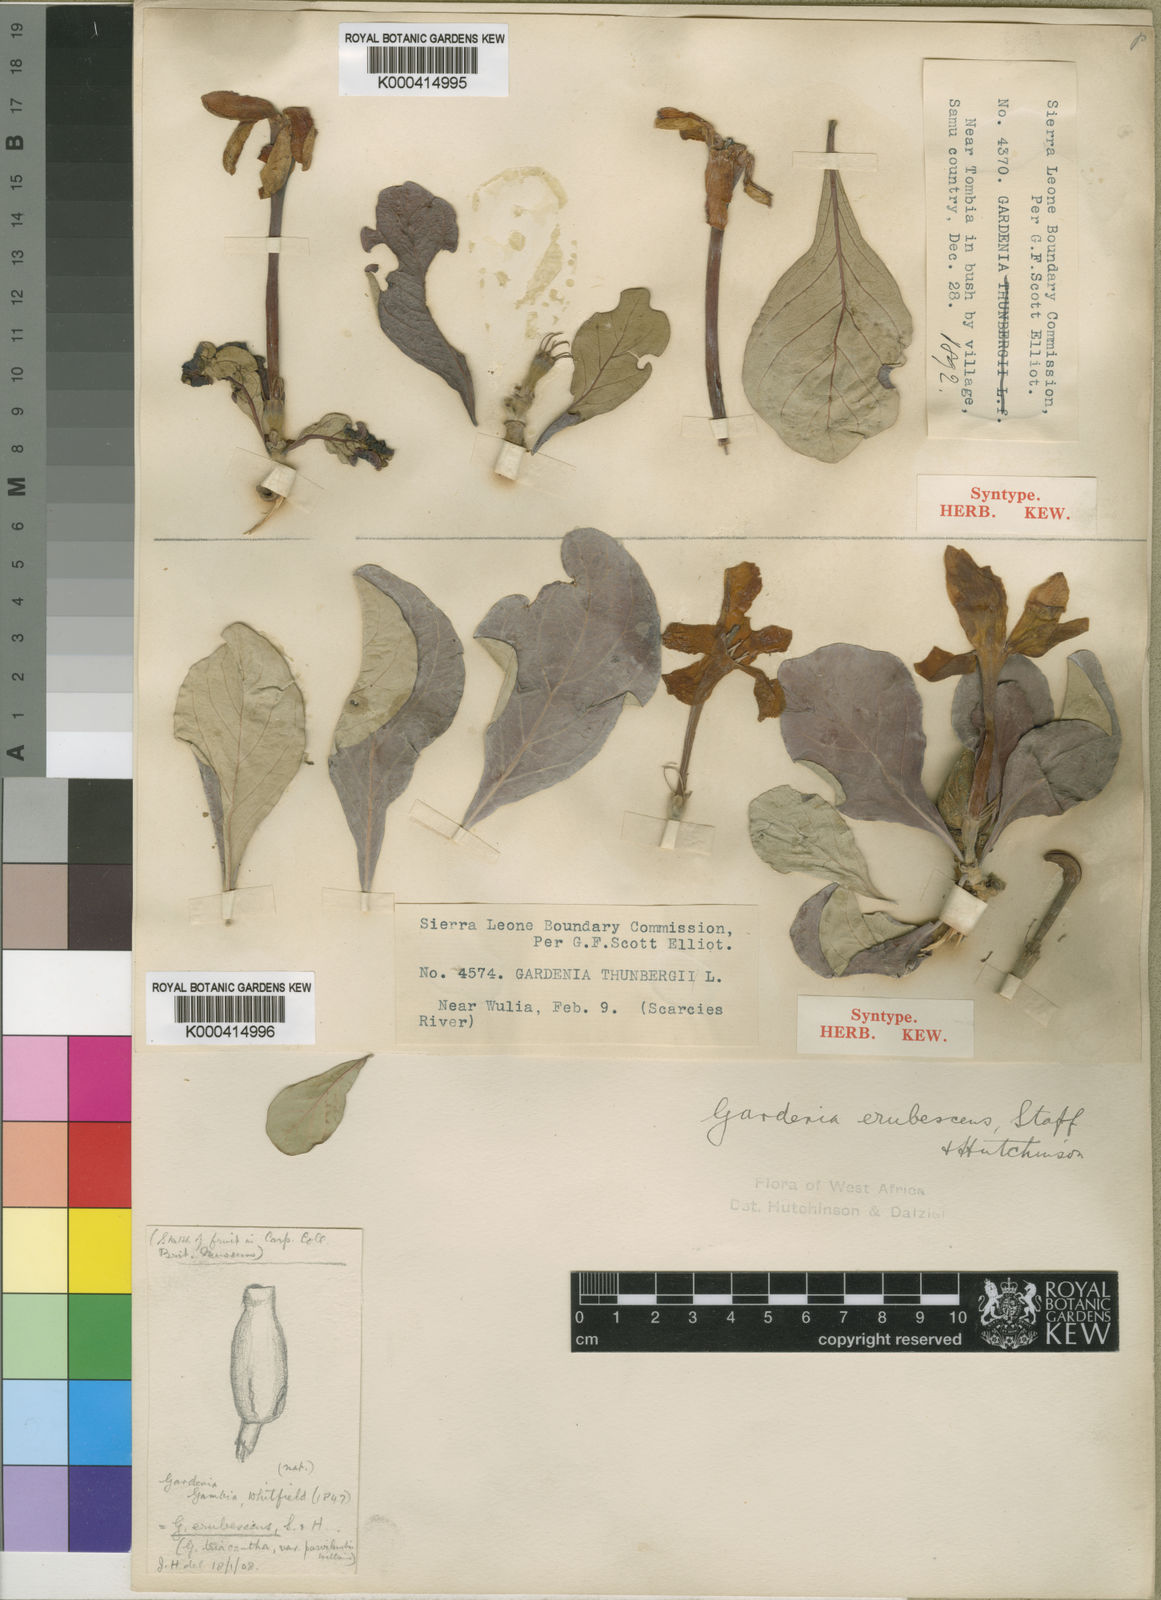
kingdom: Plantae
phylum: Tracheophyta
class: Magnoliopsida
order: Gentianales
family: Rubiaceae
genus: Gardenia
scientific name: Gardenia erubescens
